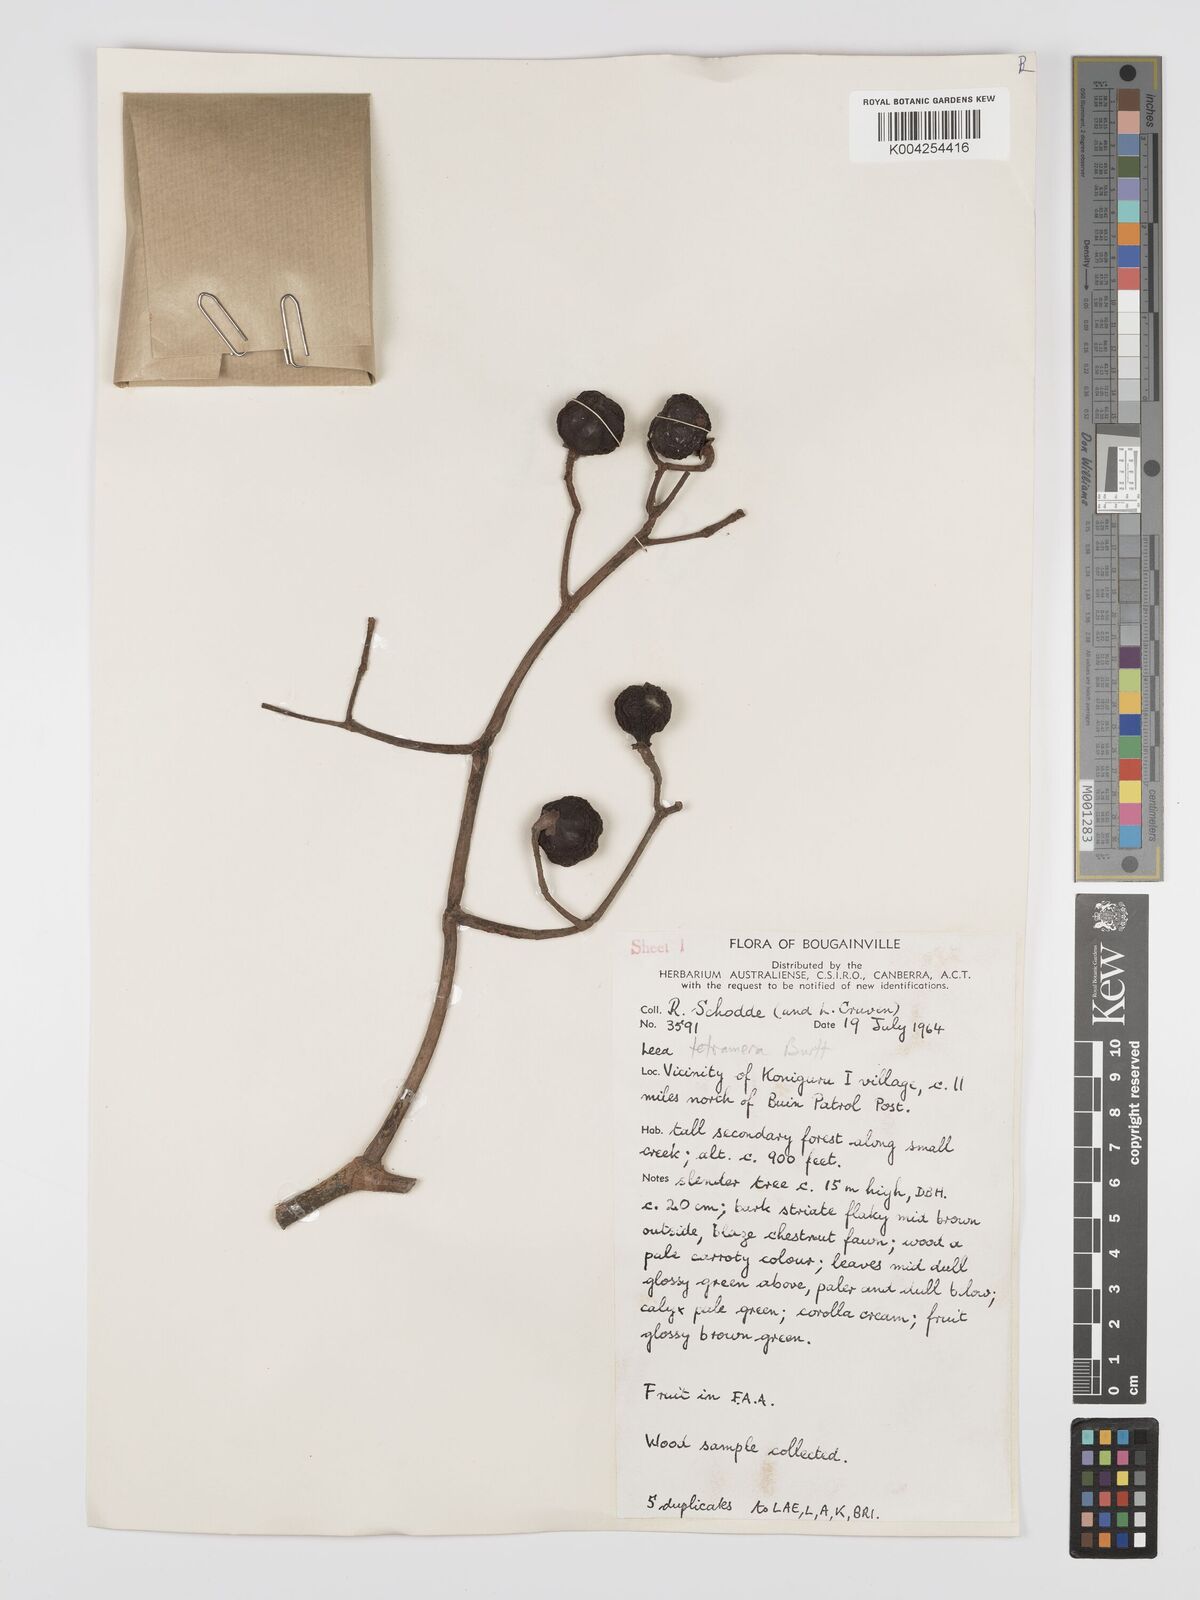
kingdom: Plantae
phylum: Tracheophyta
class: Magnoliopsida
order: Vitales
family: Vitaceae
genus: Leea
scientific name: Leea tetramera
